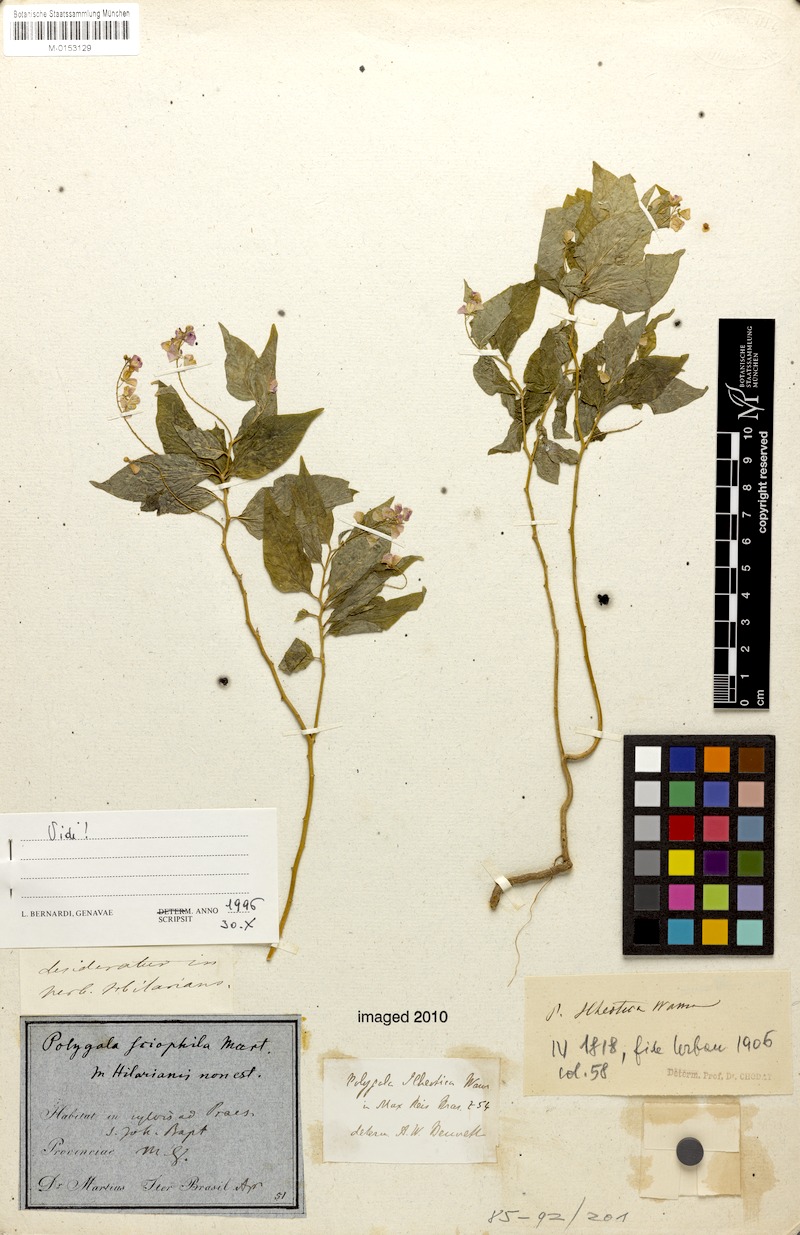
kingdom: Plantae
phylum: Tracheophyta
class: Magnoliopsida
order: Fabales
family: Polygalaceae
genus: Asemeia
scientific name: Asemeia ilheotica
